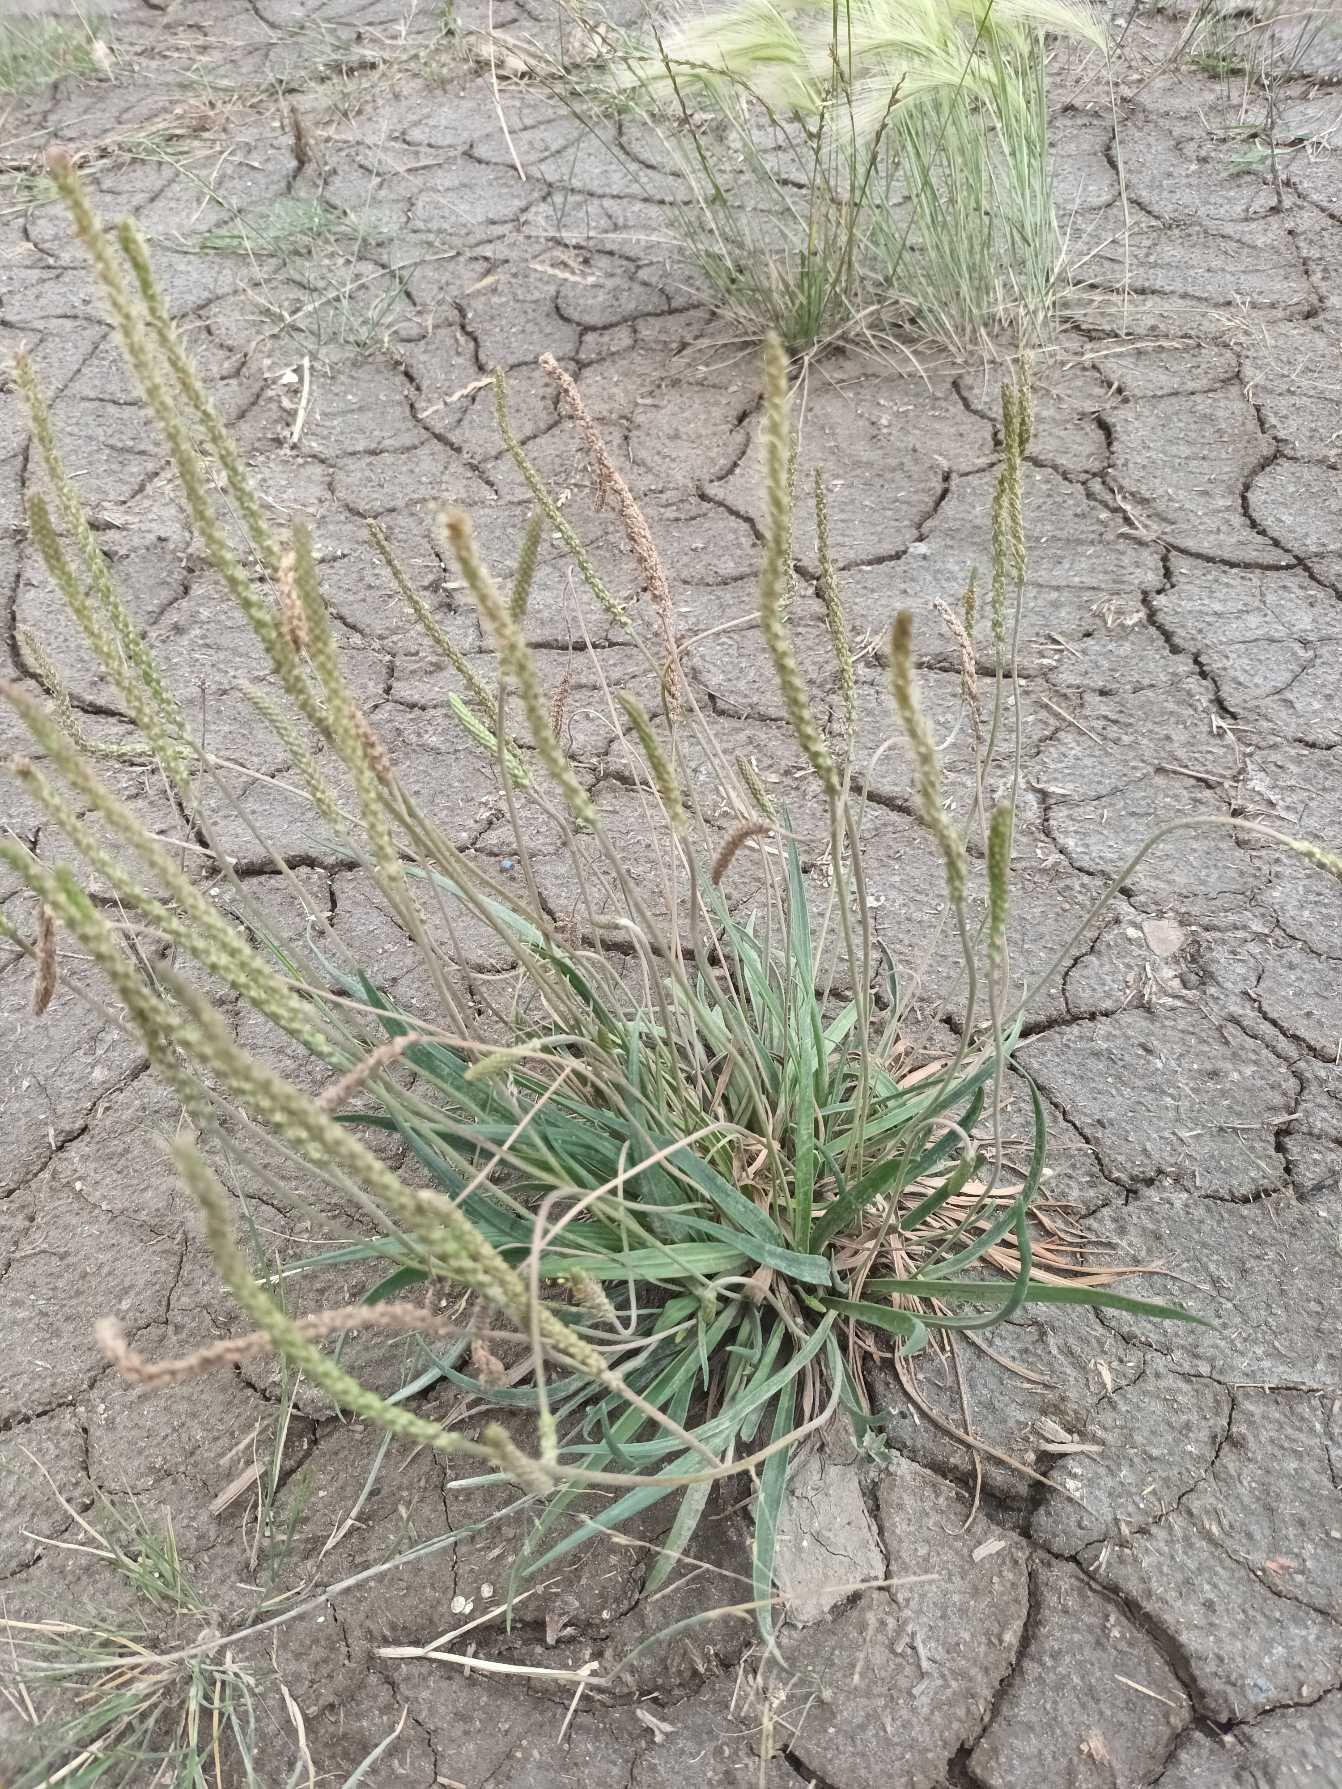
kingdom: Plantae
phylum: Tracheophyta
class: Magnoliopsida
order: Lamiales
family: Plantaginaceae
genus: Plantago
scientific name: Plantago maritima
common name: Strand-vejbred
